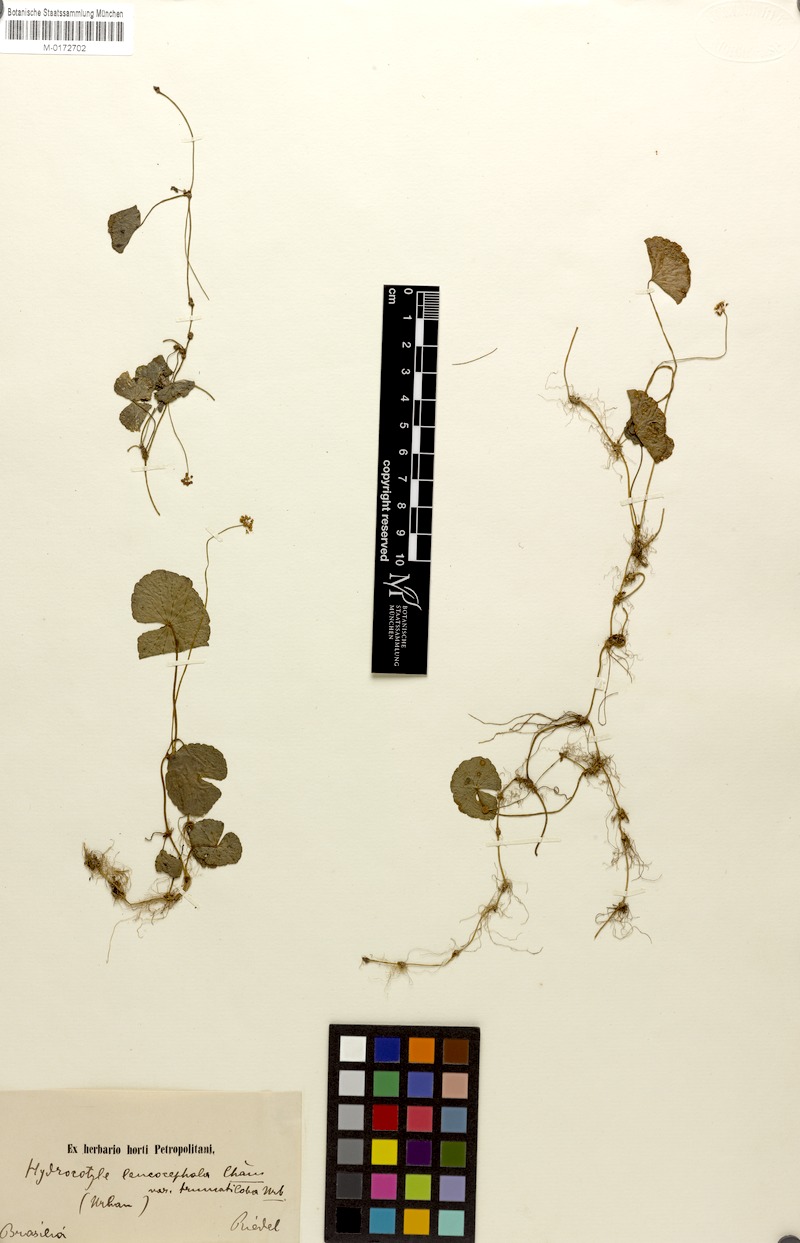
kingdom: Plantae
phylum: Tracheophyta
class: Magnoliopsida
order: Apiales
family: Araliaceae
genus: Hydrocotyle
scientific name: Hydrocotyle leucocephala
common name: Brazilian pennywort
